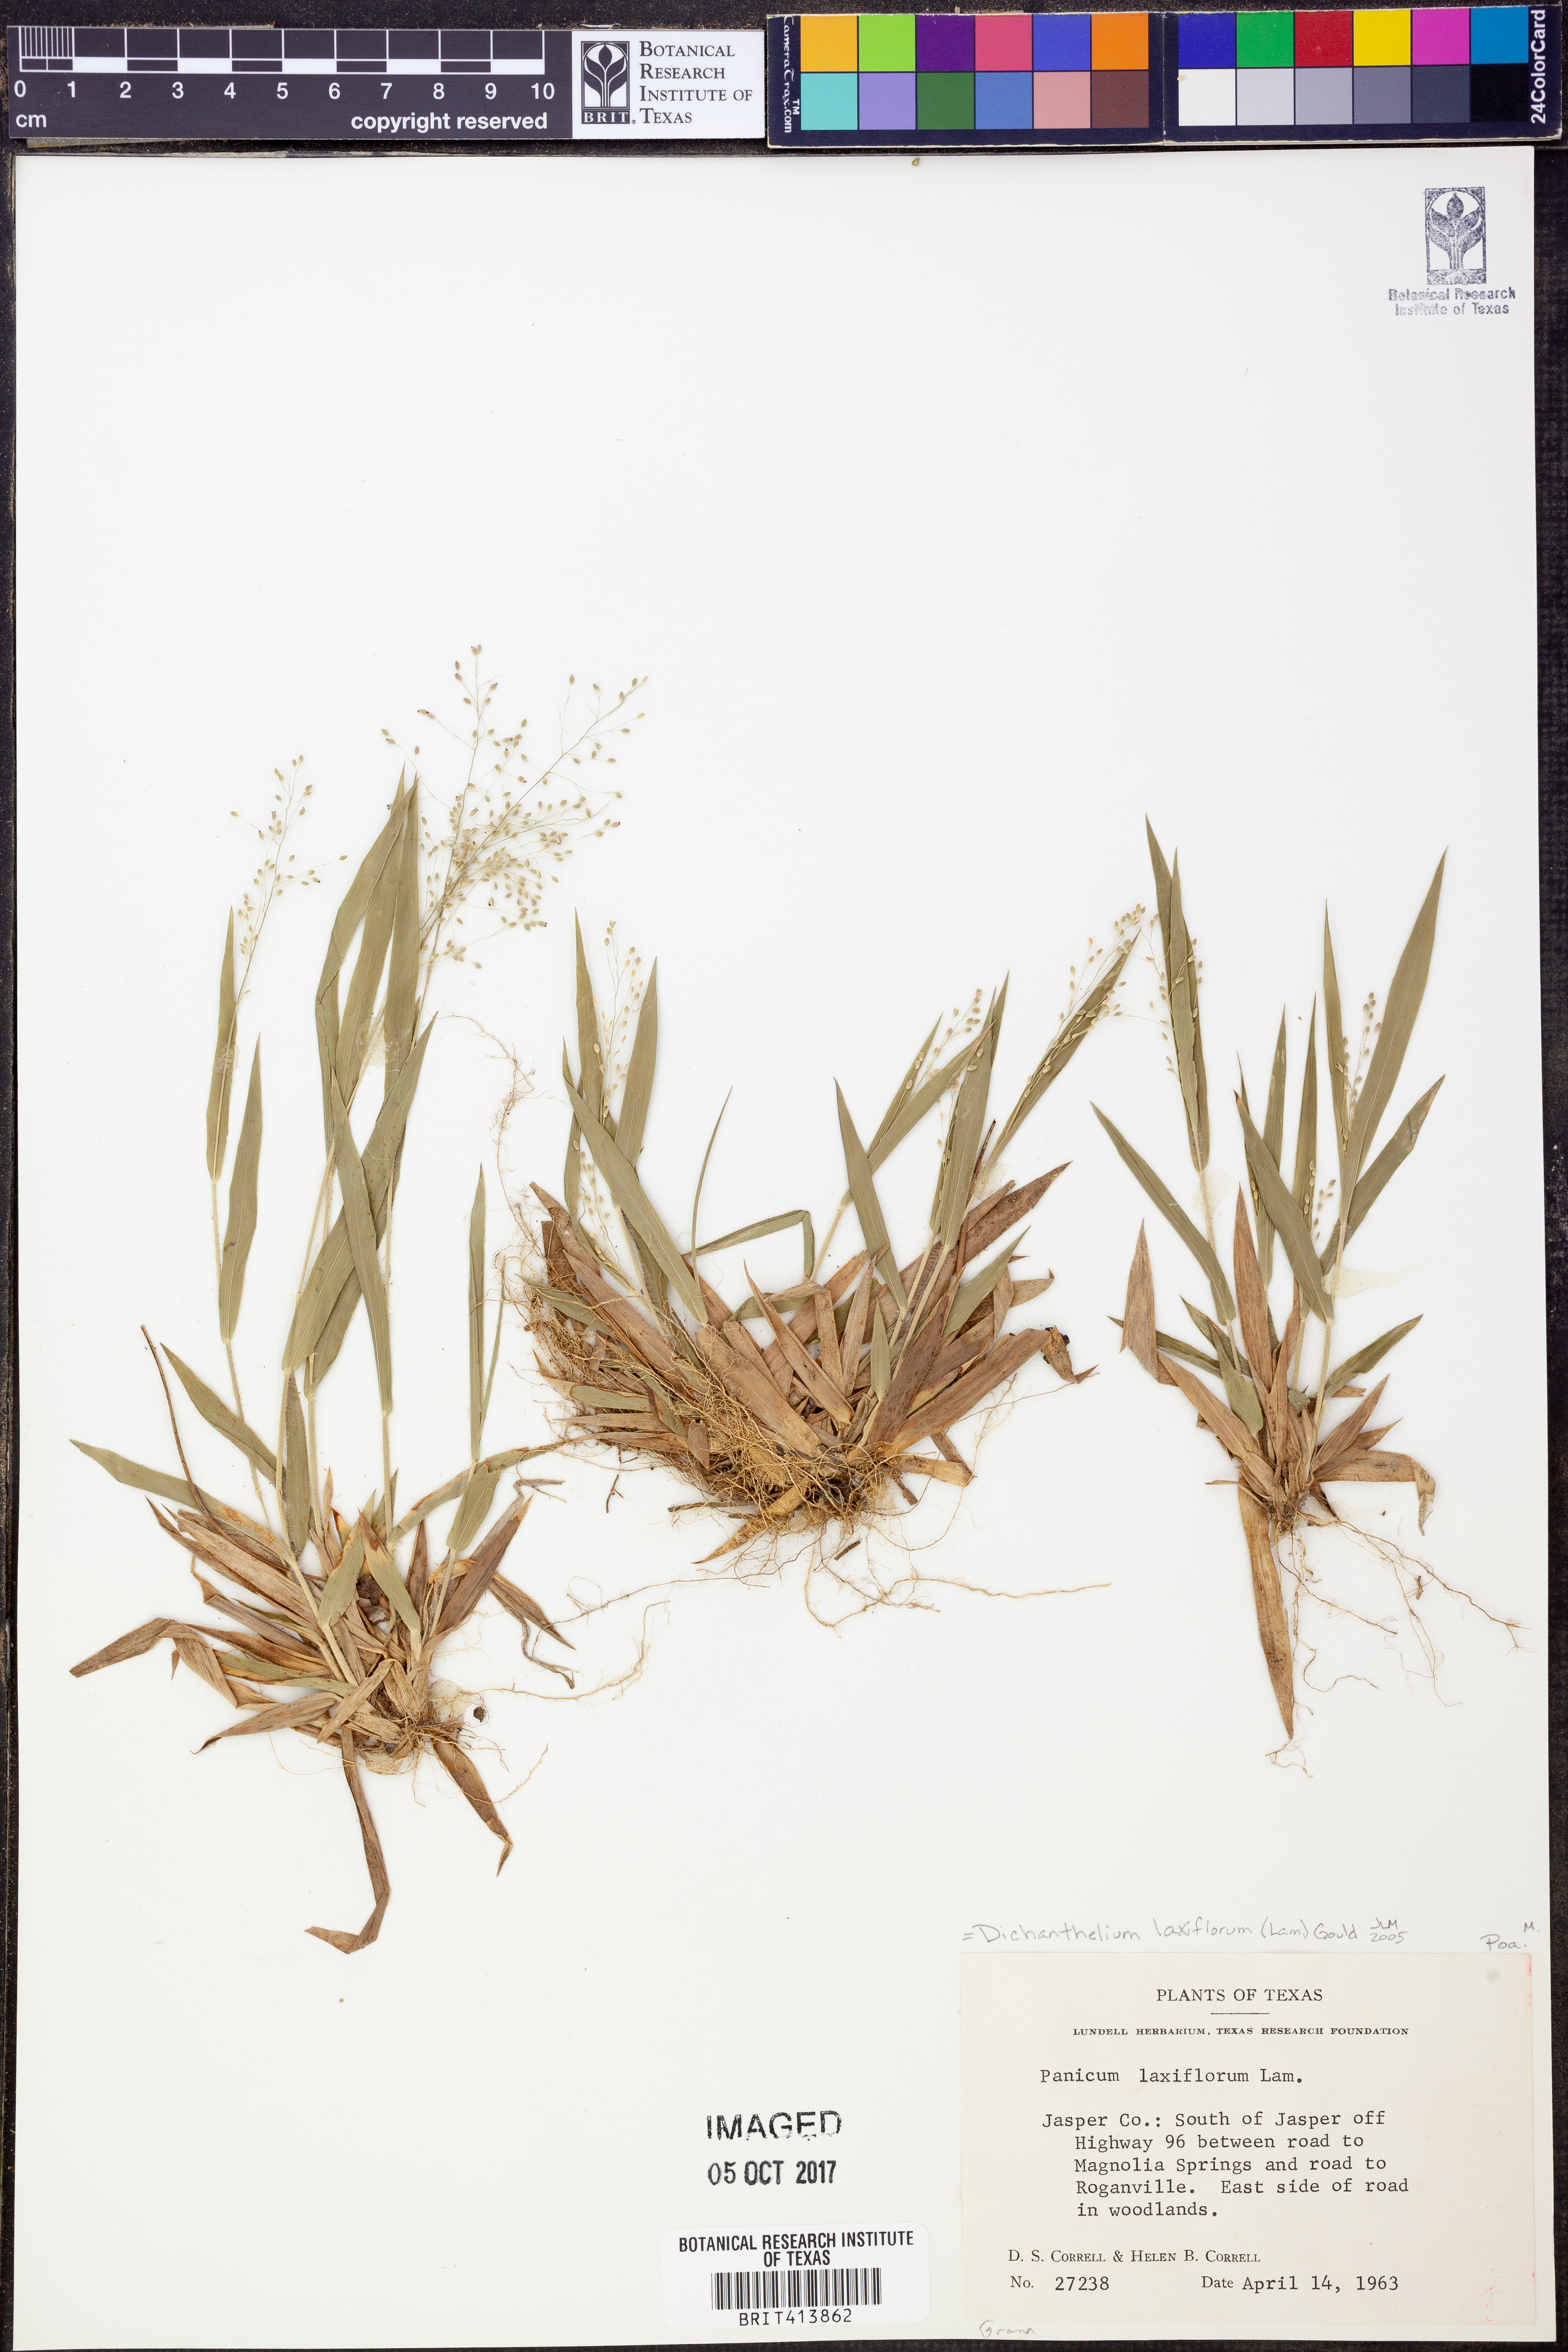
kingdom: Plantae
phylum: Tracheophyta
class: Liliopsida
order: Poales
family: Poaceae
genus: Dichanthelium
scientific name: Dichanthelium laxiflorum
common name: Soft-tuft panic grass
